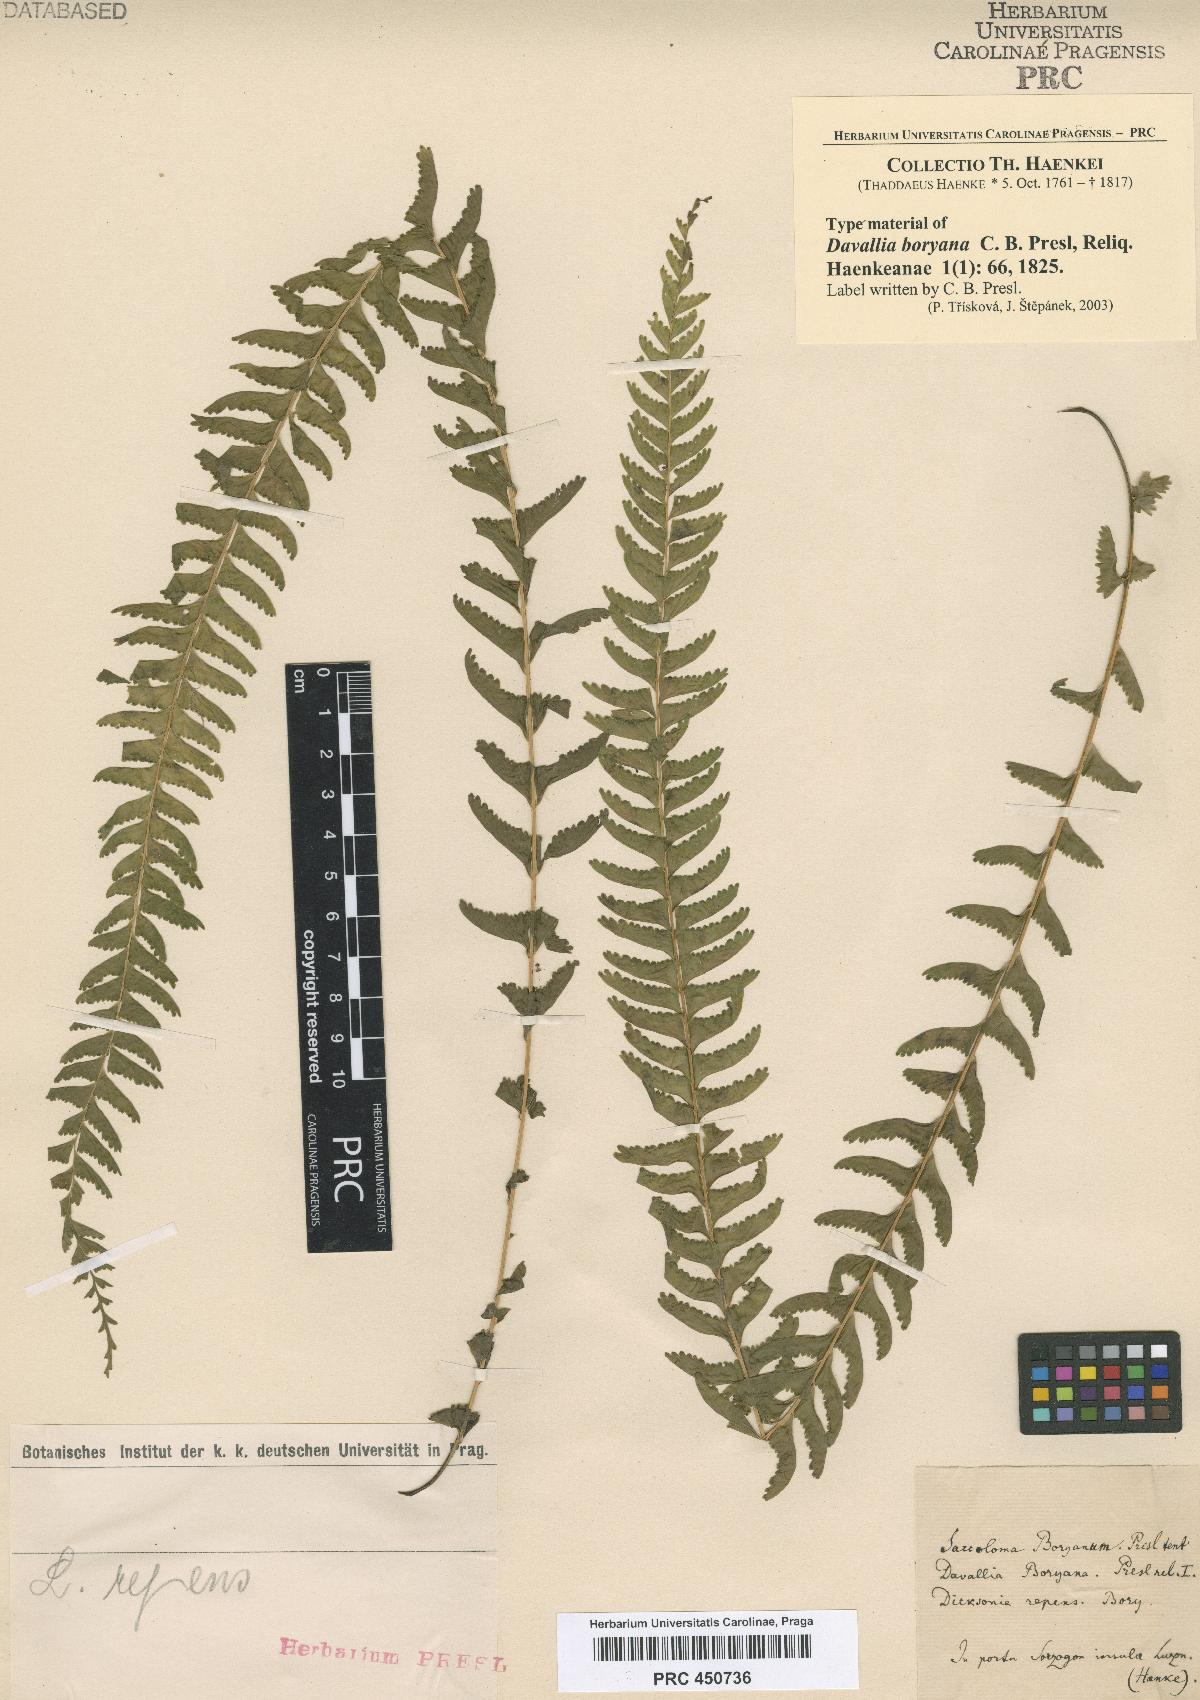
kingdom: Plantae
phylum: Tracheophyta
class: Polypodiopsida
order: Polypodiales
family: Lindsaeaceae
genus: Lindsaea
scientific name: Lindsaea repens
